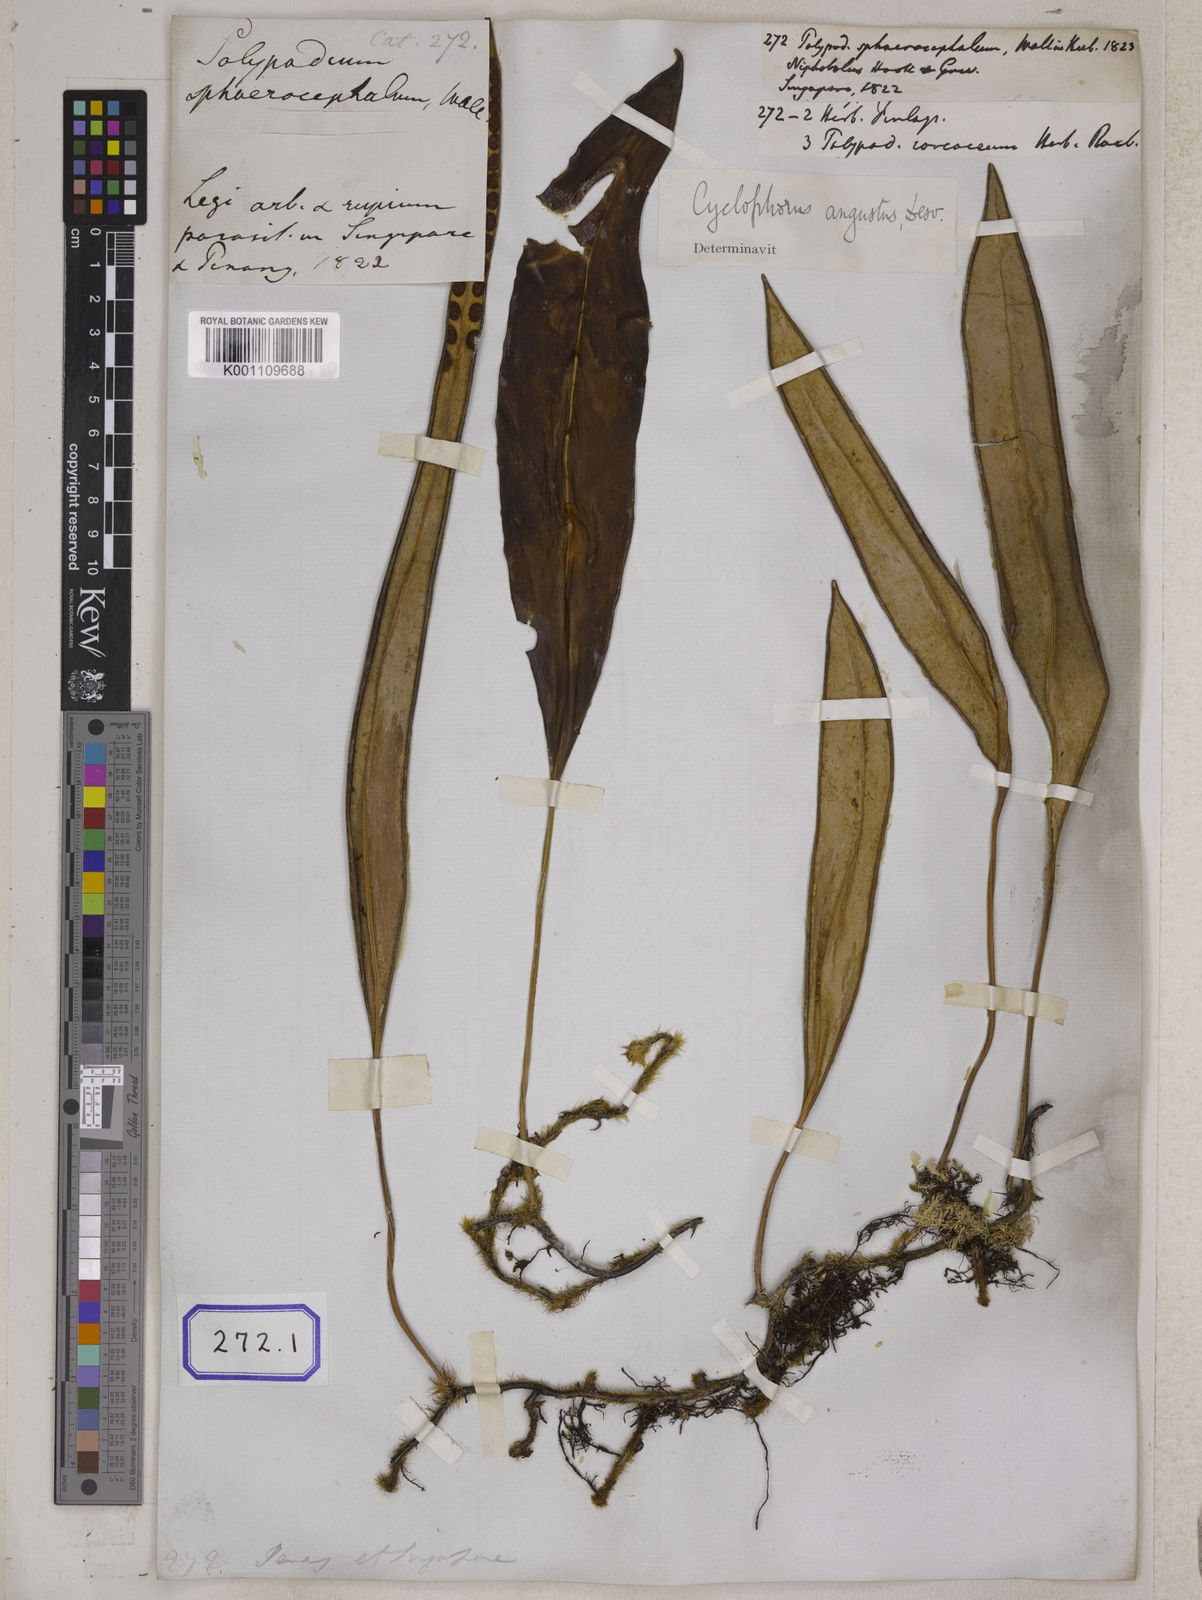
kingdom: Plantae
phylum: Tracheophyta
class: Polypodiopsida
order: Polypodiales
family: Polypodiaceae
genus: Pyrrosia
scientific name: Pyrrosia angustata
